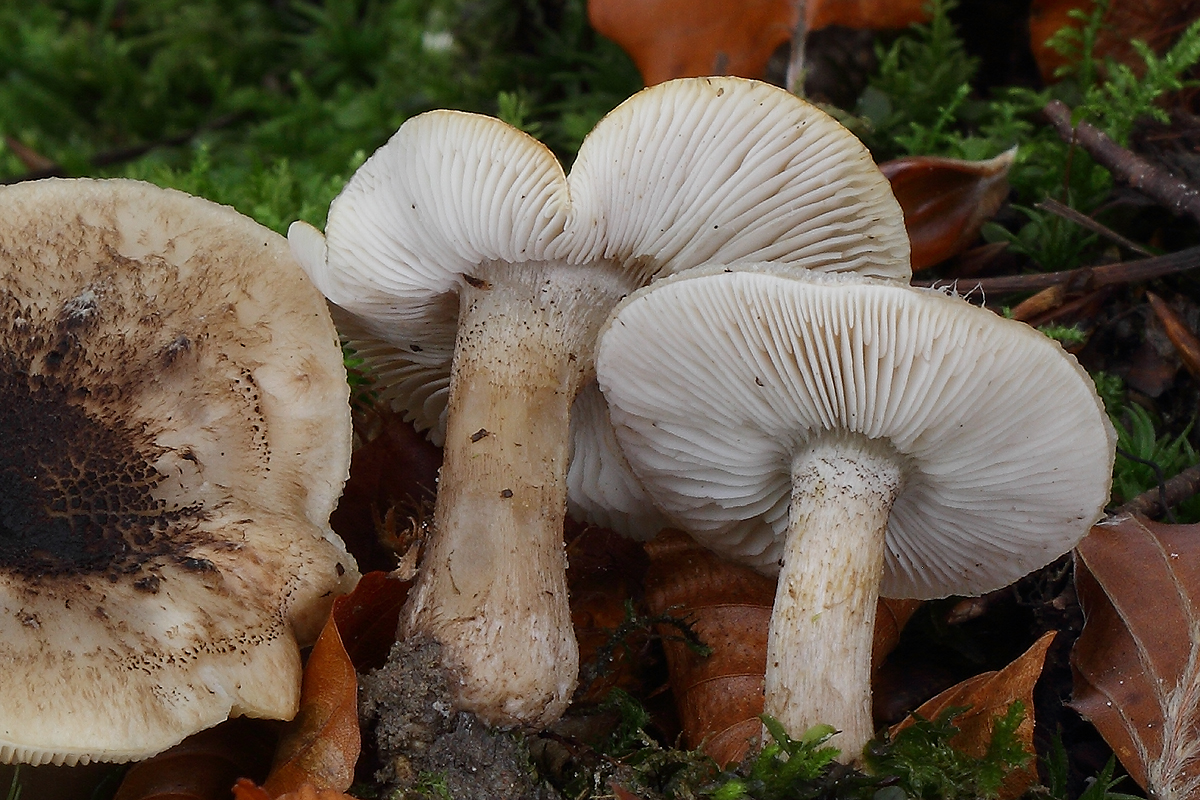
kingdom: Fungi
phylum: Basidiomycota
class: Agaricomycetes
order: Agaricales
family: Tricholomataceae
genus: Tricholoma
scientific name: Tricholoma basirubens
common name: rødfodet ridderhat
